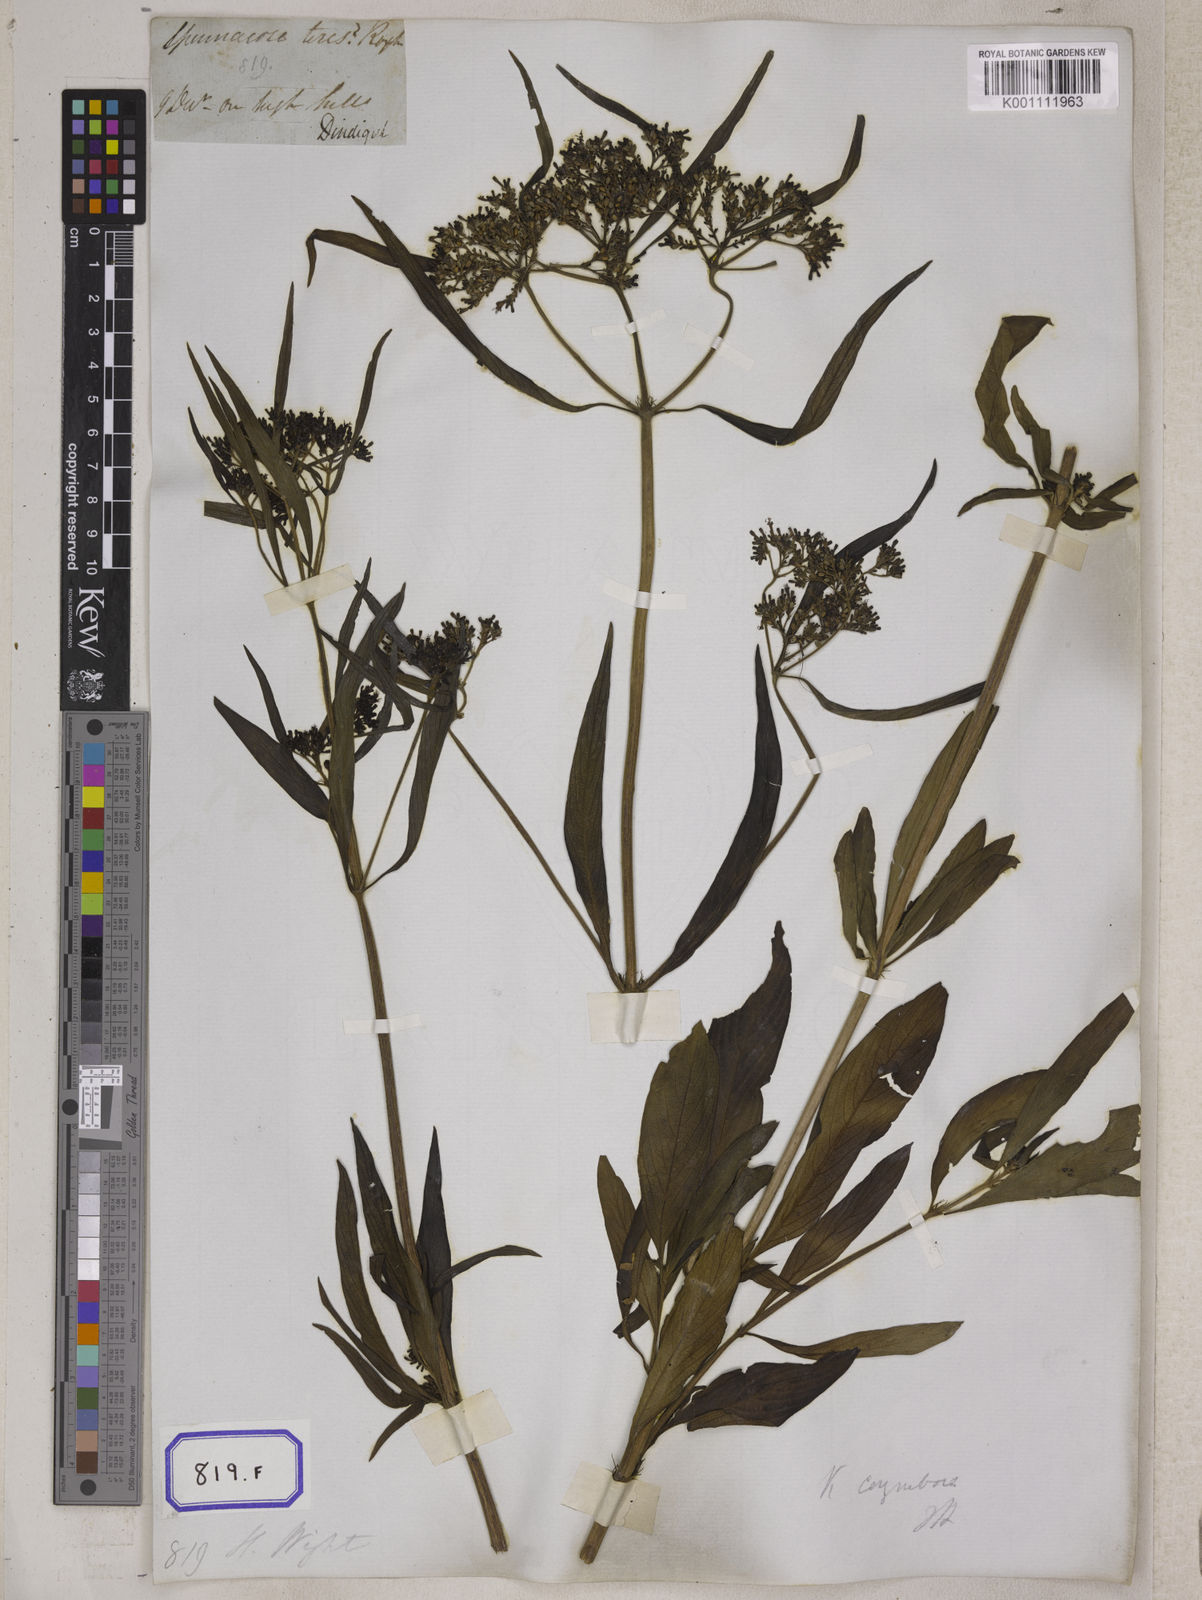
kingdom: Plantae
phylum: Tracheophyta
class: Magnoliopsida
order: Gentianales
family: Rubiaceae
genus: Knoxia
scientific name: Knoxia sumatrensis
